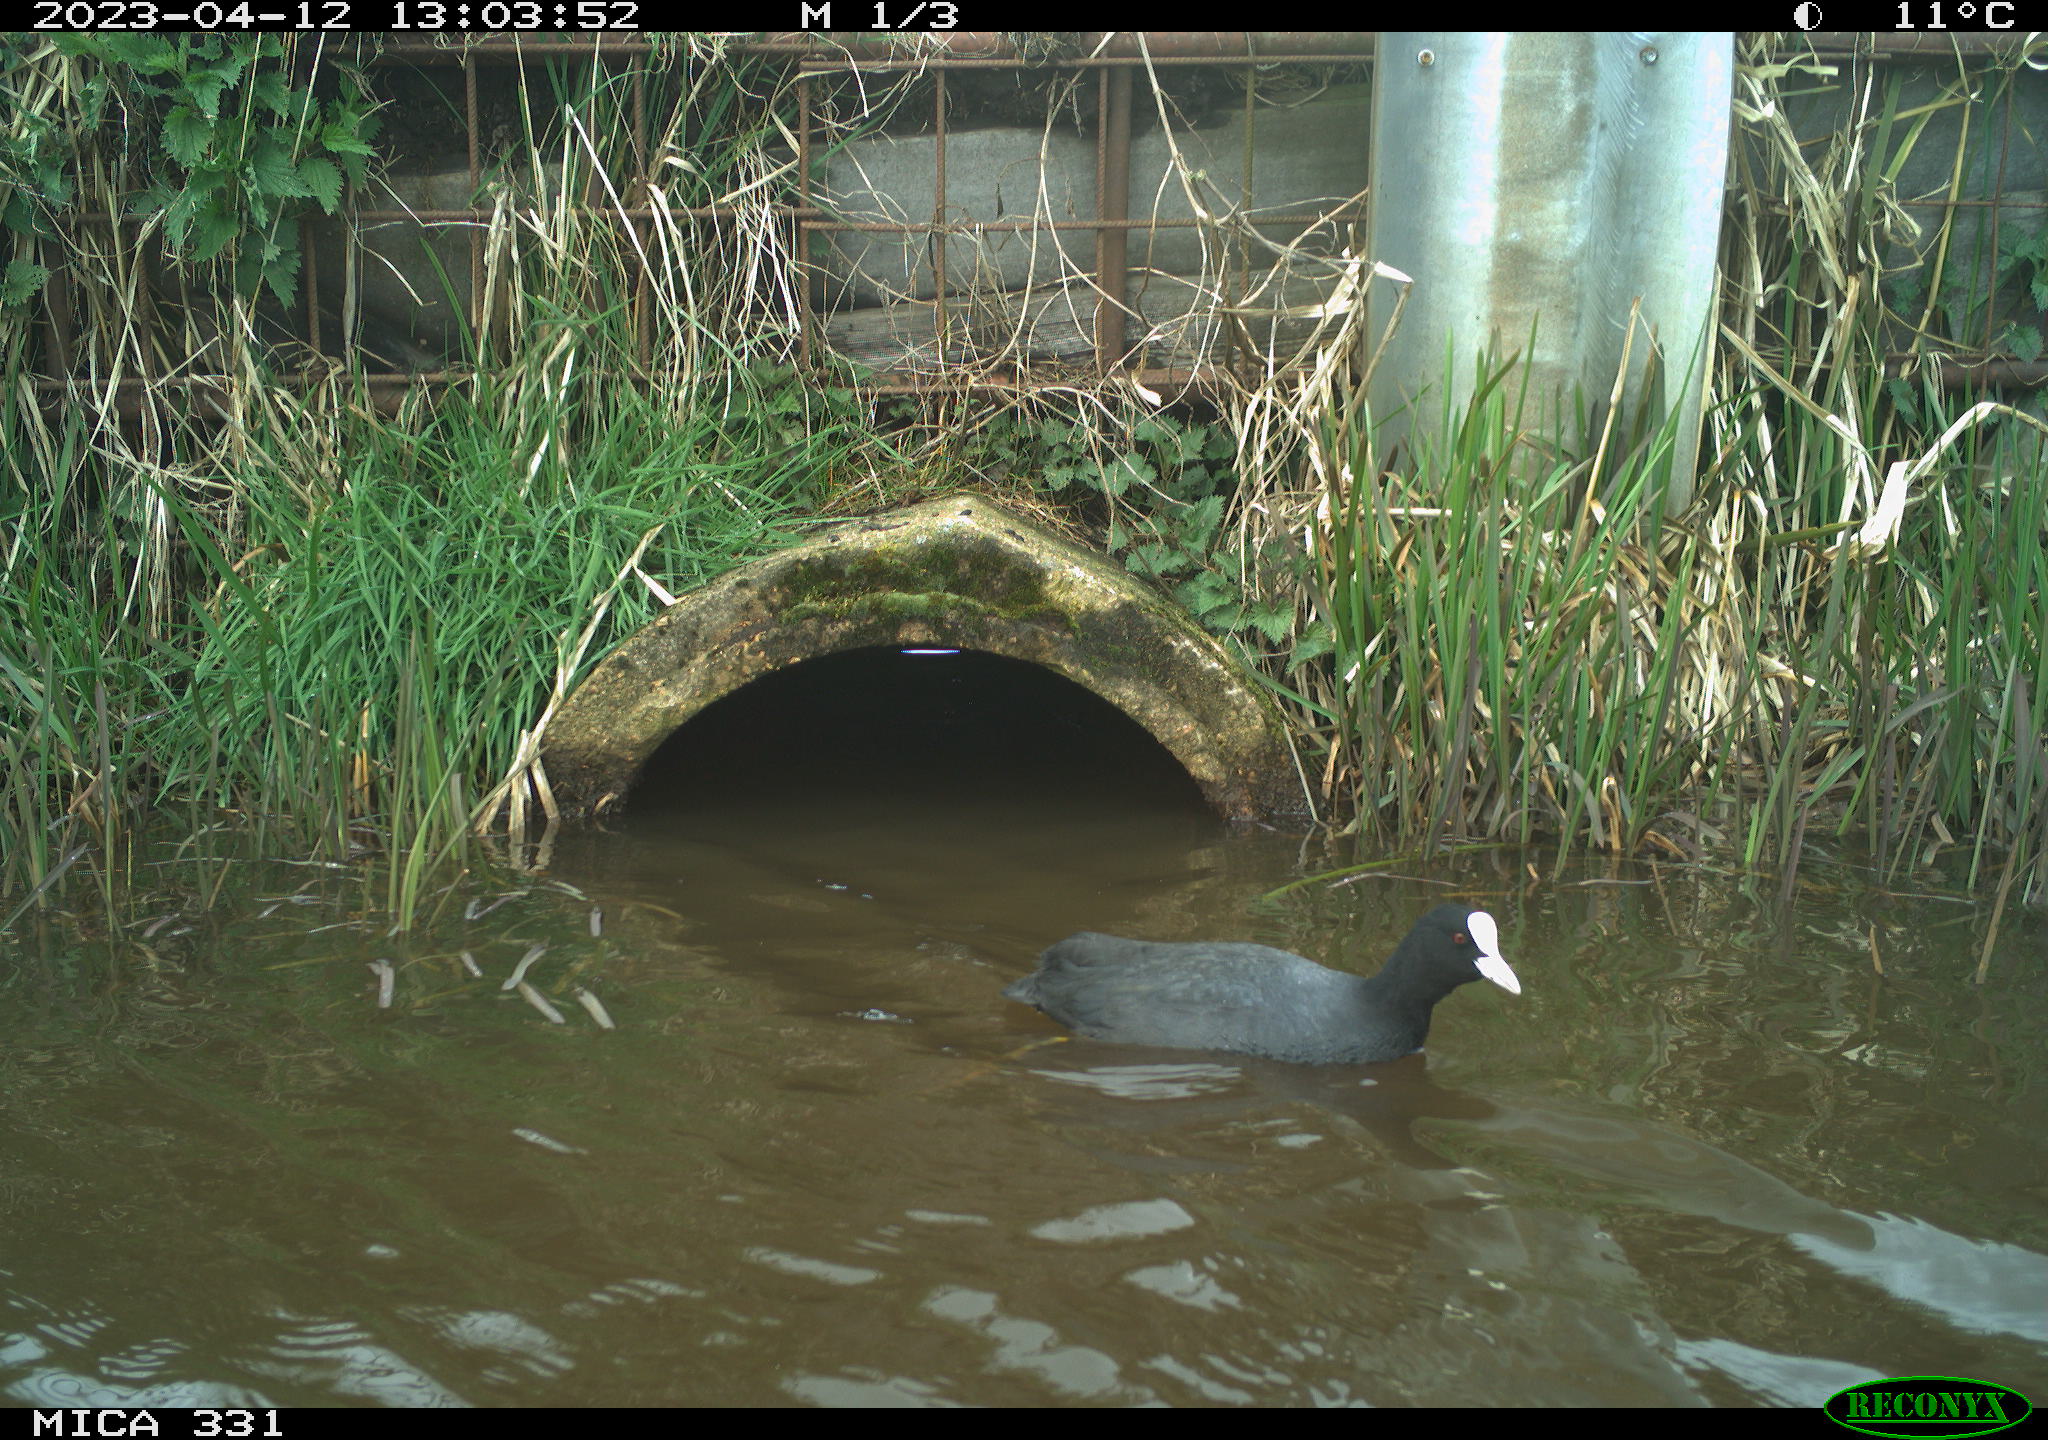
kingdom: Animalia
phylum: Chordata
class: Aves
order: Gruiformes
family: Rallidae
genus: Fulica
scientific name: Fulica atra
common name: Eurasian coot
